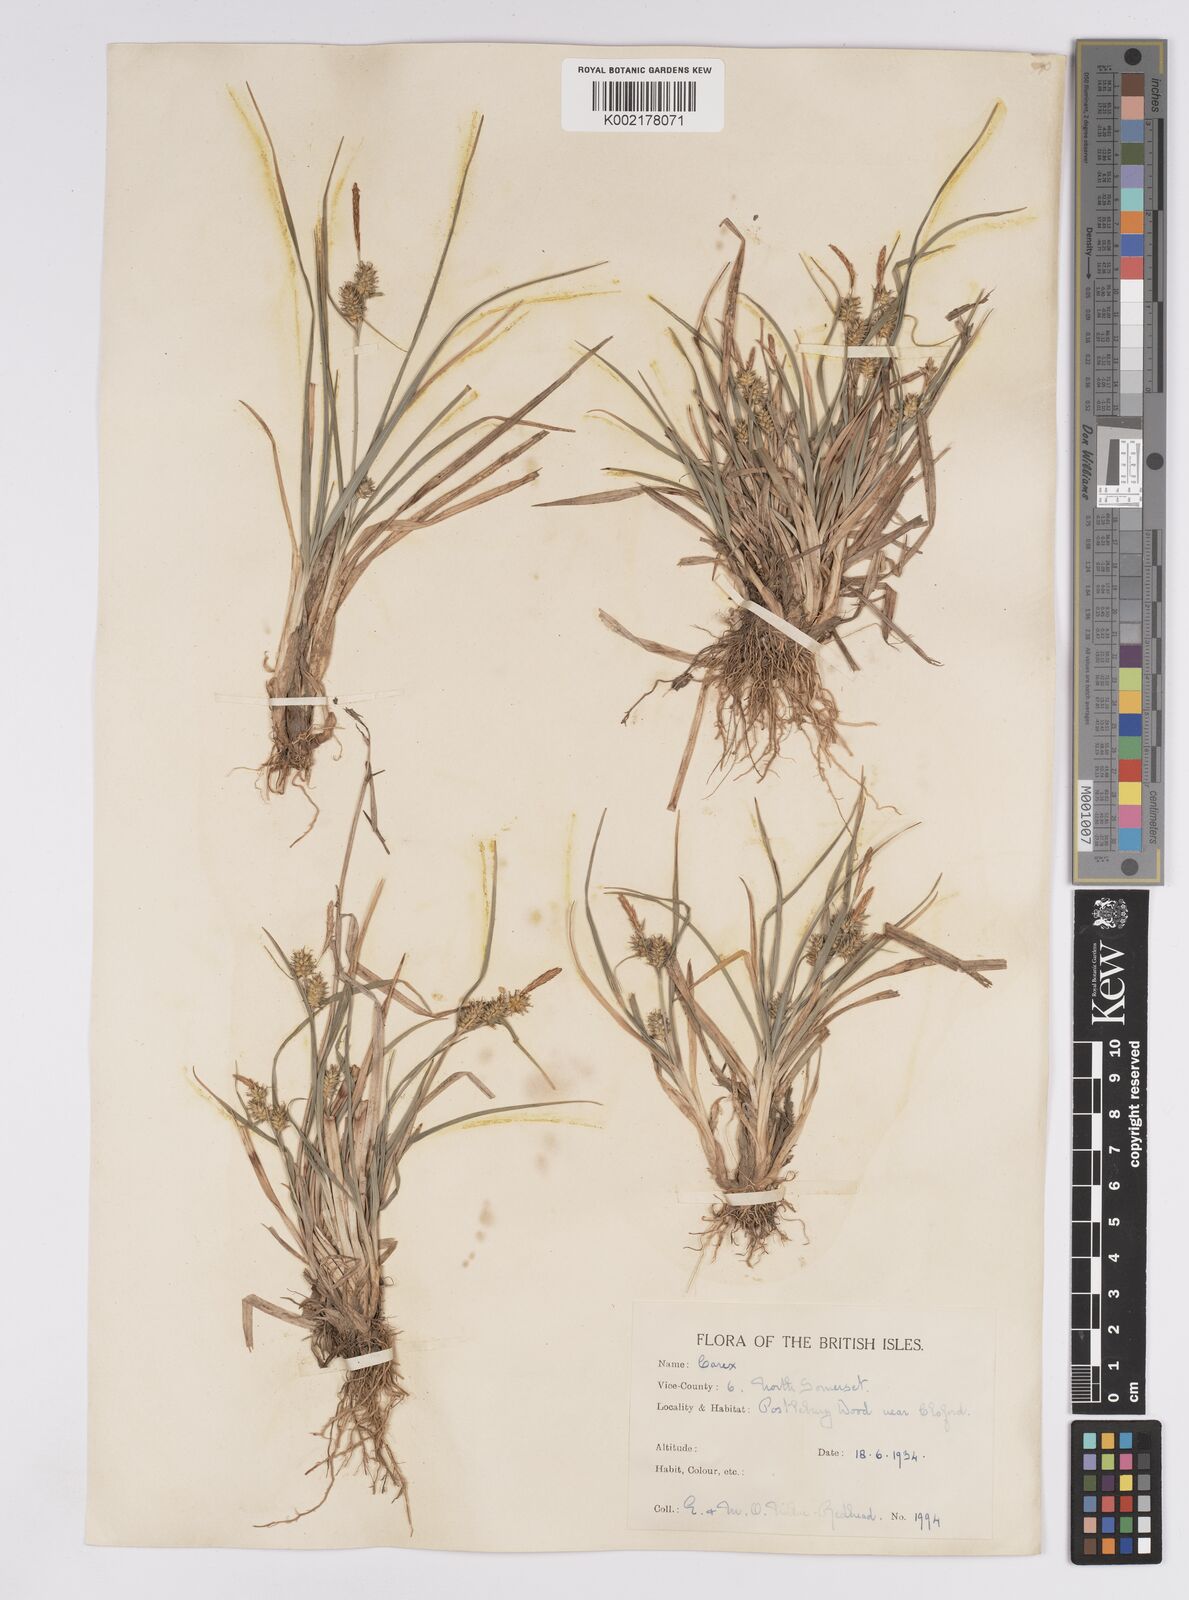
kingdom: Plantae
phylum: Tracheophyta
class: Liliopsida
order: Poales
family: Cyperaceae
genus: Carex
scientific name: Carex demissa
